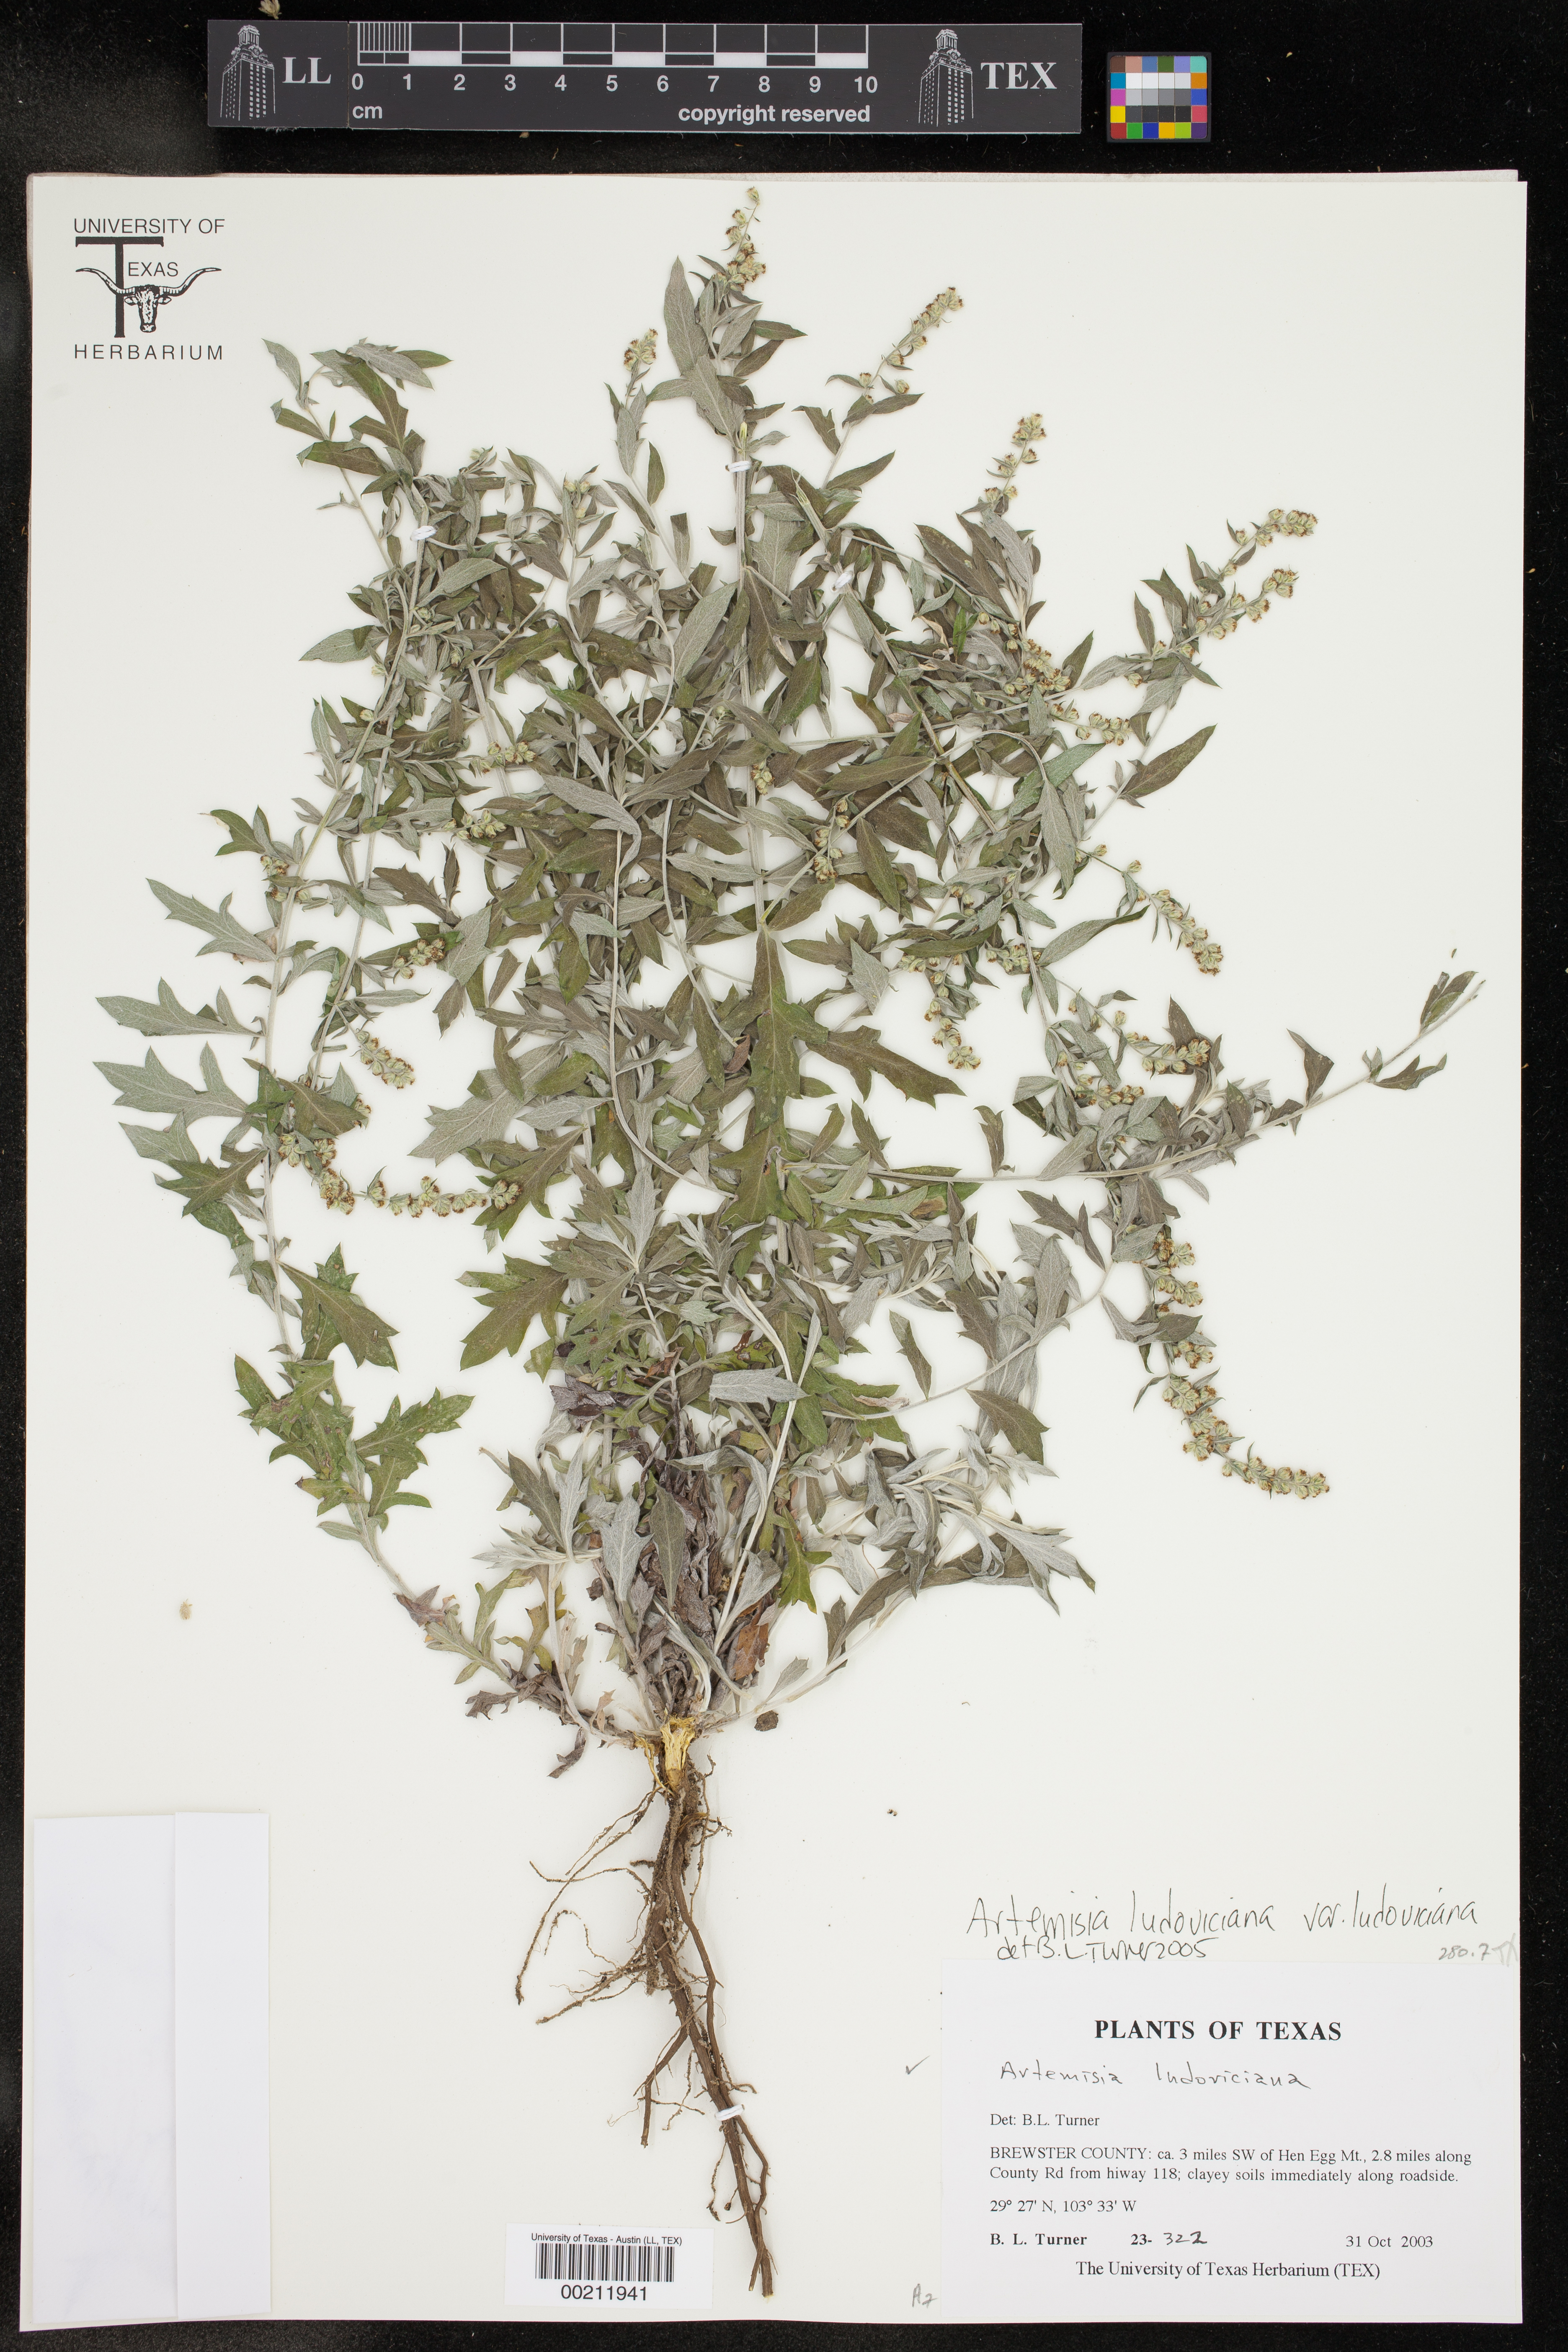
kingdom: Plantae
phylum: Tracheophyta
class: Magnoliopsida
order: Asterales
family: Asteraceae
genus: Artemisia
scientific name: Artemisia ludoviciana
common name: Western mugwort
